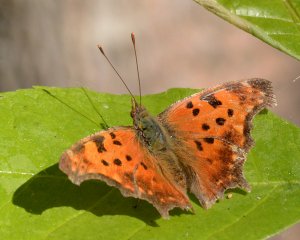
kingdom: Animalia
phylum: Arthropoda
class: Insecta
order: Lepidoptera
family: Nymphalidae
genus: Polygonia
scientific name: Polygonia comma
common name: Eastern Comma
